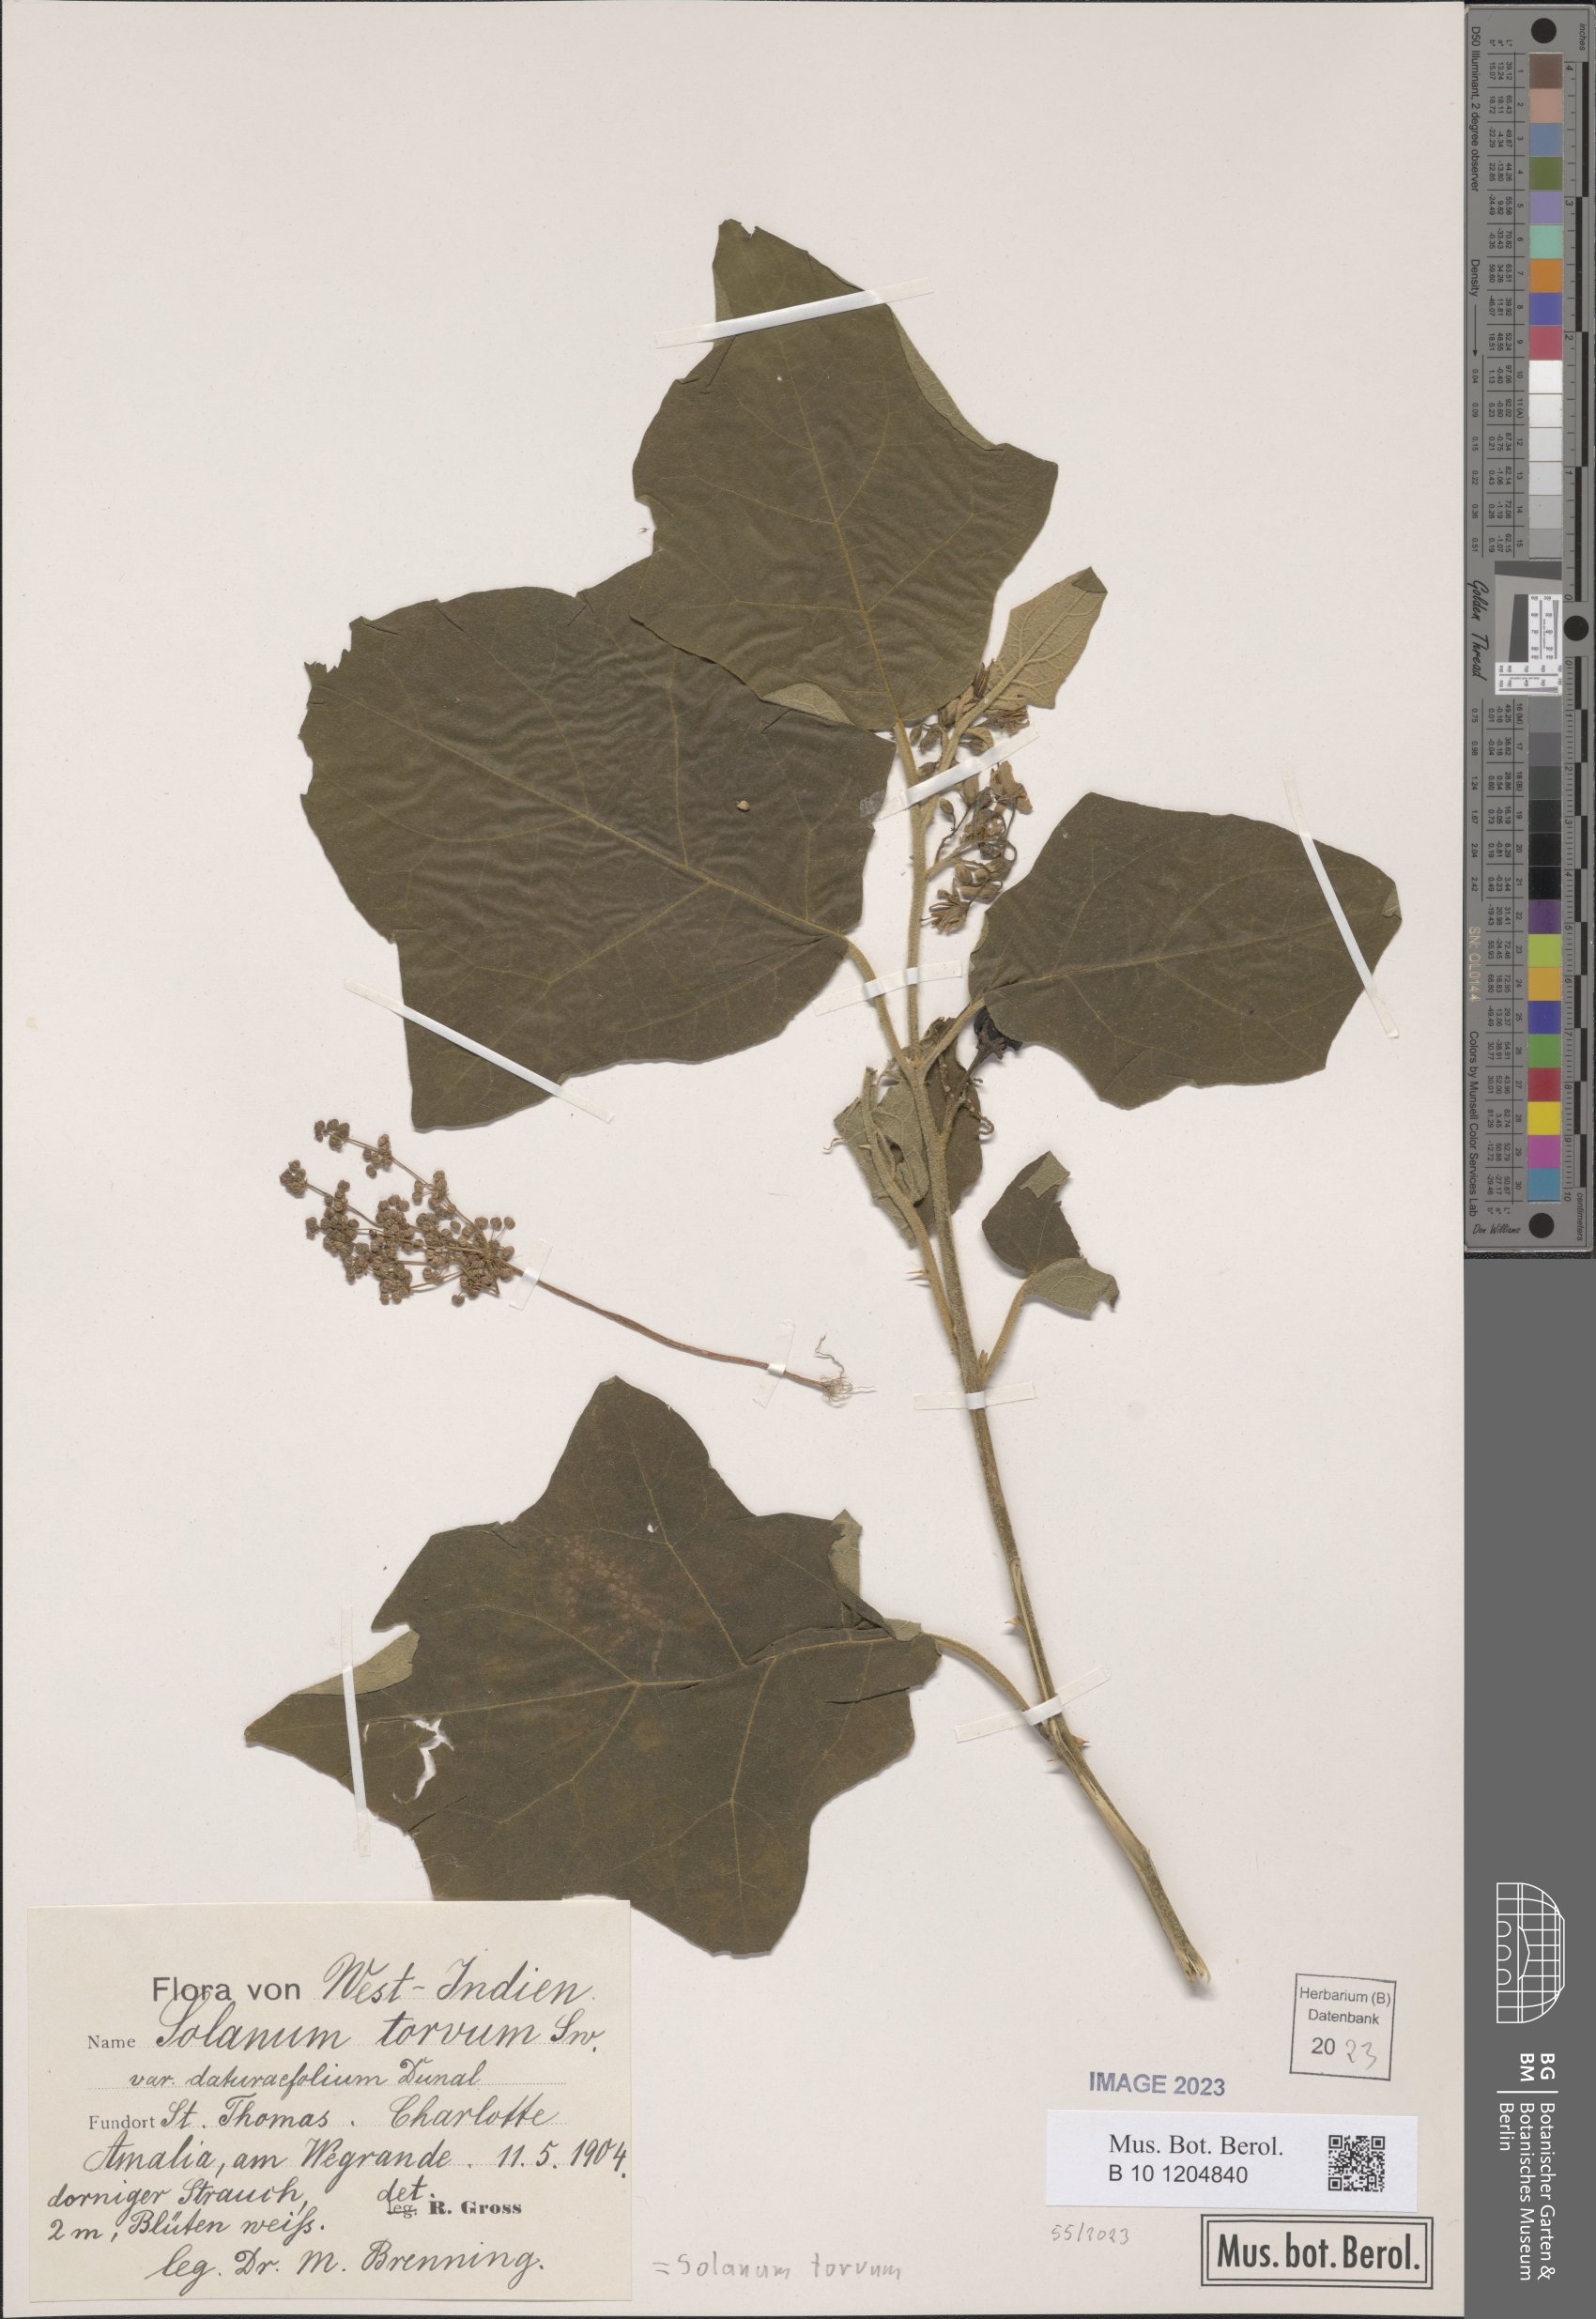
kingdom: Plantae
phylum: Tracheophyta
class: Magnoliopsida
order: Solanales
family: Solanaceae
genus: Solanum
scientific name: Solanum torvum
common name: Turkey berry
